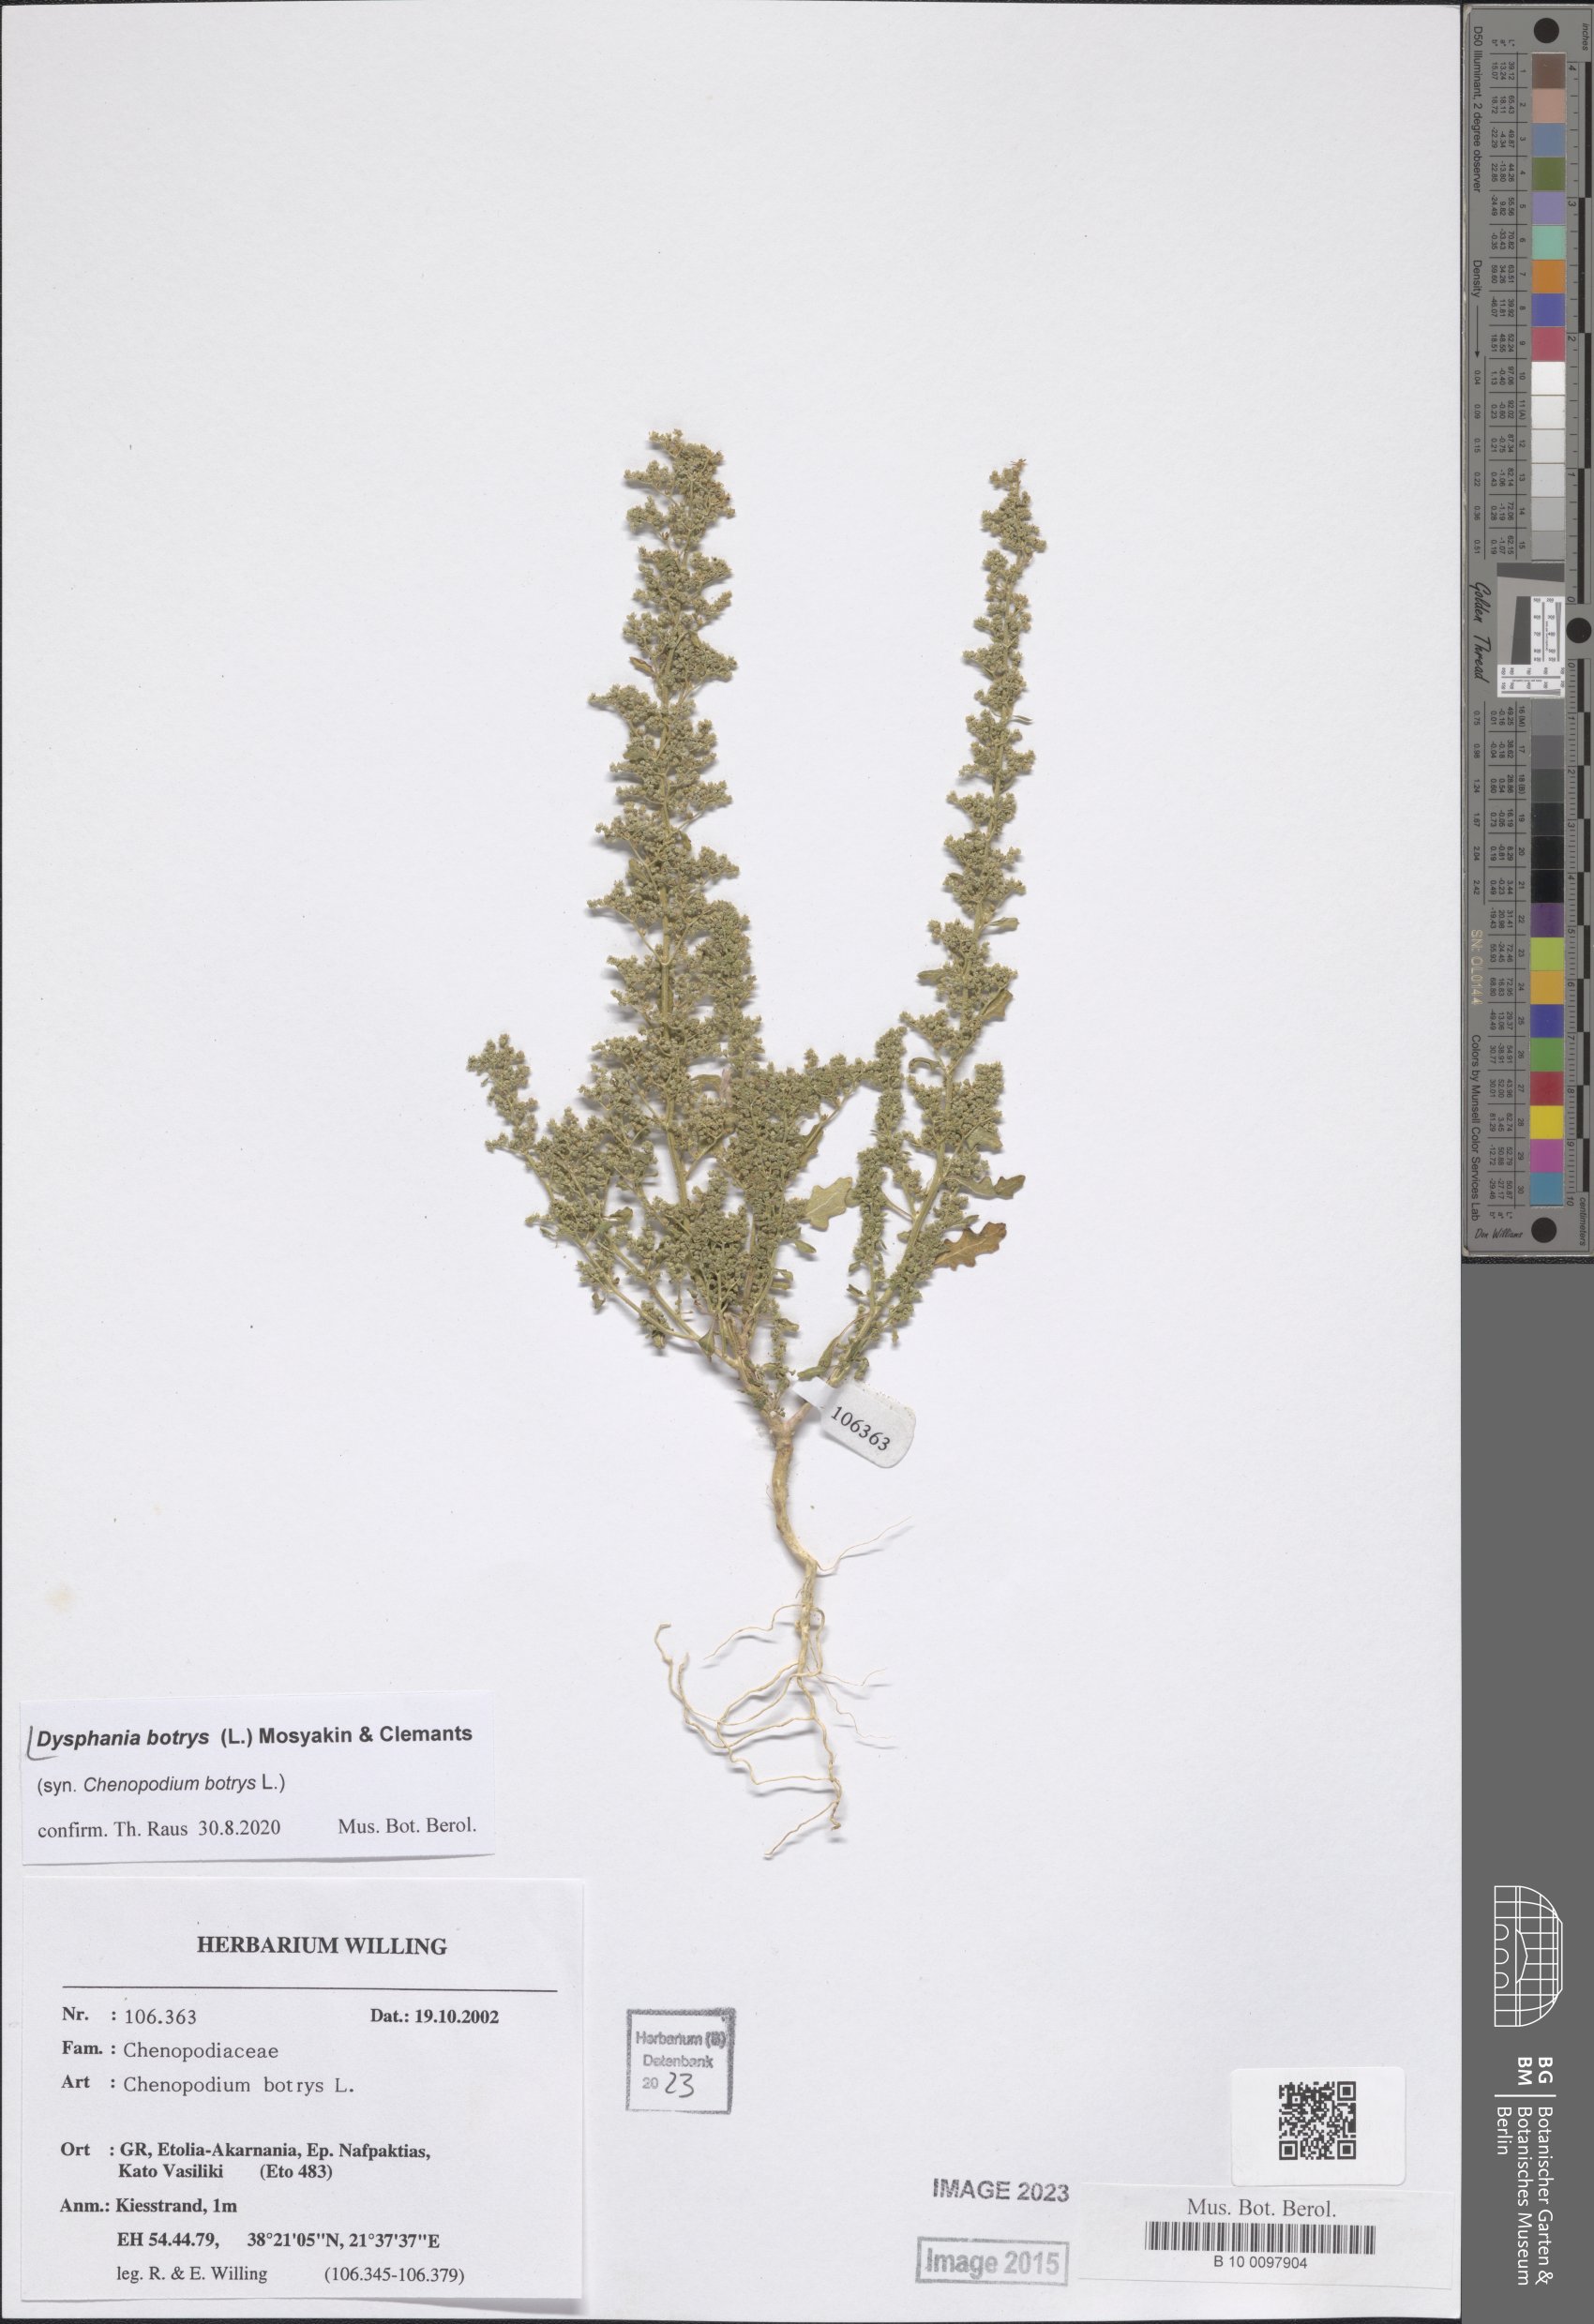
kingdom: Plantae
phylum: Tracheophyta
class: Magnoliopsida
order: Caryophyllales
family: Amaranthaceae
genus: Dysphania
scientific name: Dysphania botrys
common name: Feather-geranium
